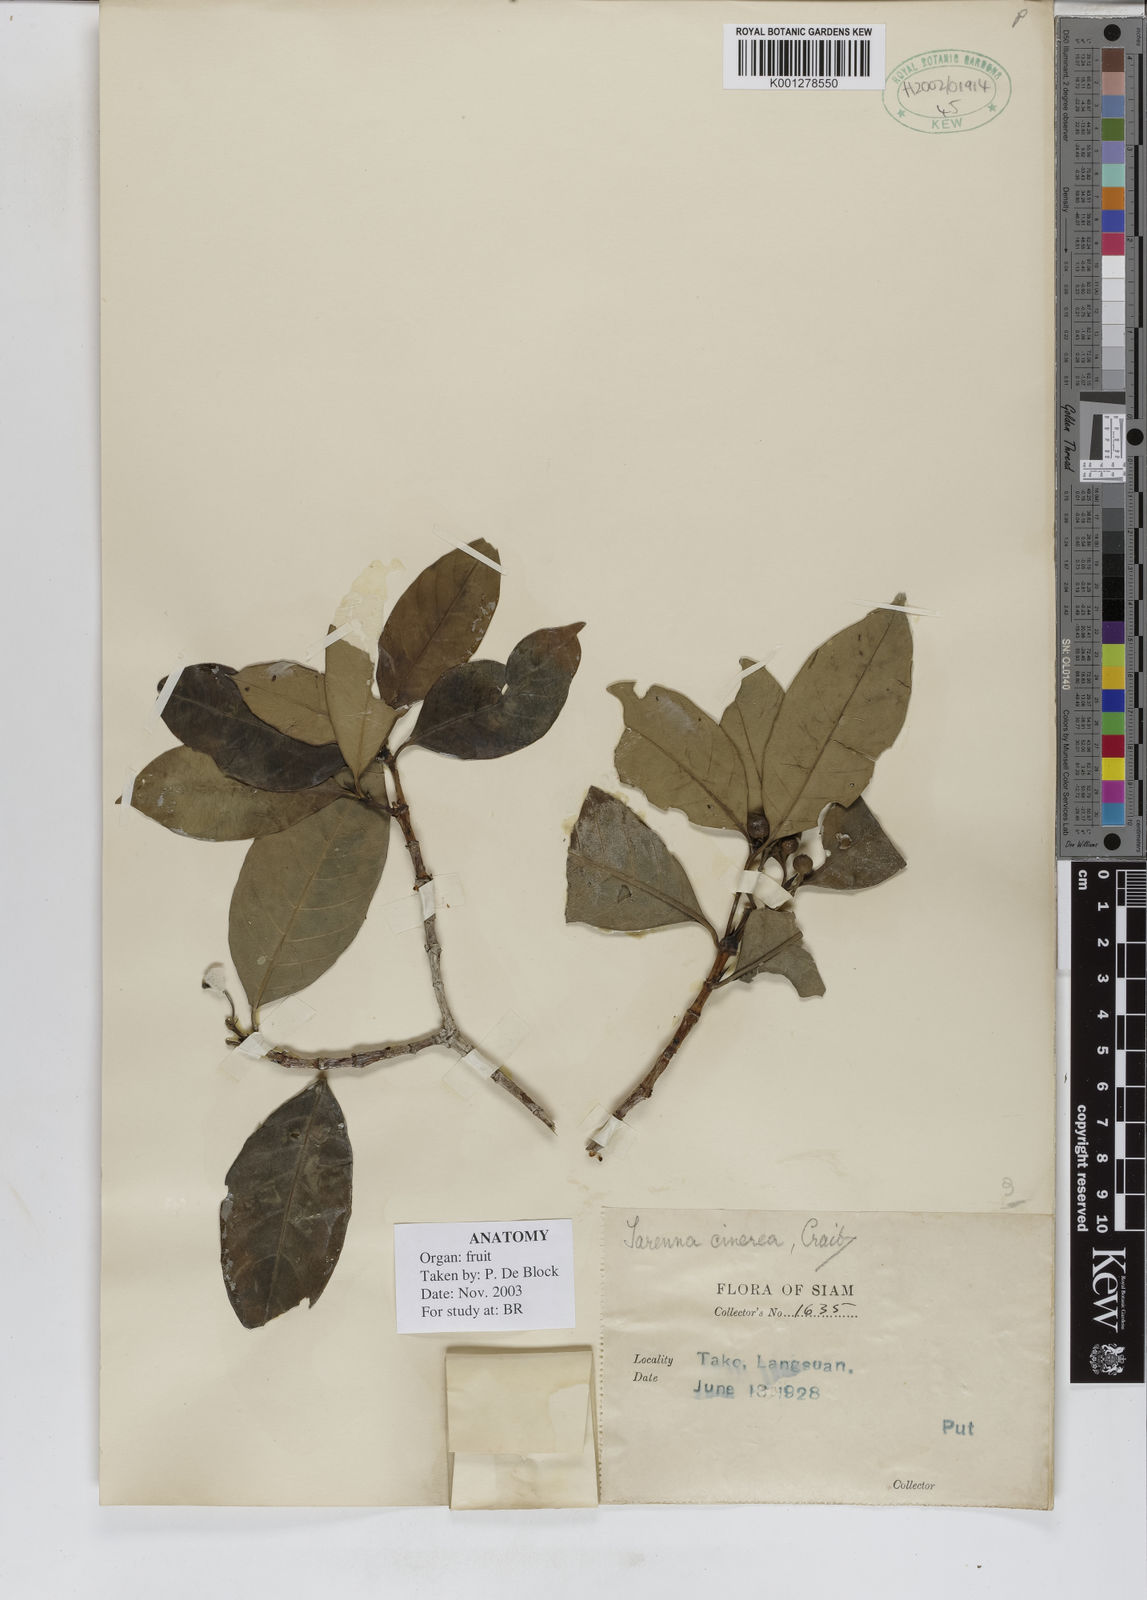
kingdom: Plantae
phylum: Tracheophyta
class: Magnoliopsida
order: Gentianales
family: Rubiaceae
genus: Tarenna
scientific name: Tarenna cinerea
